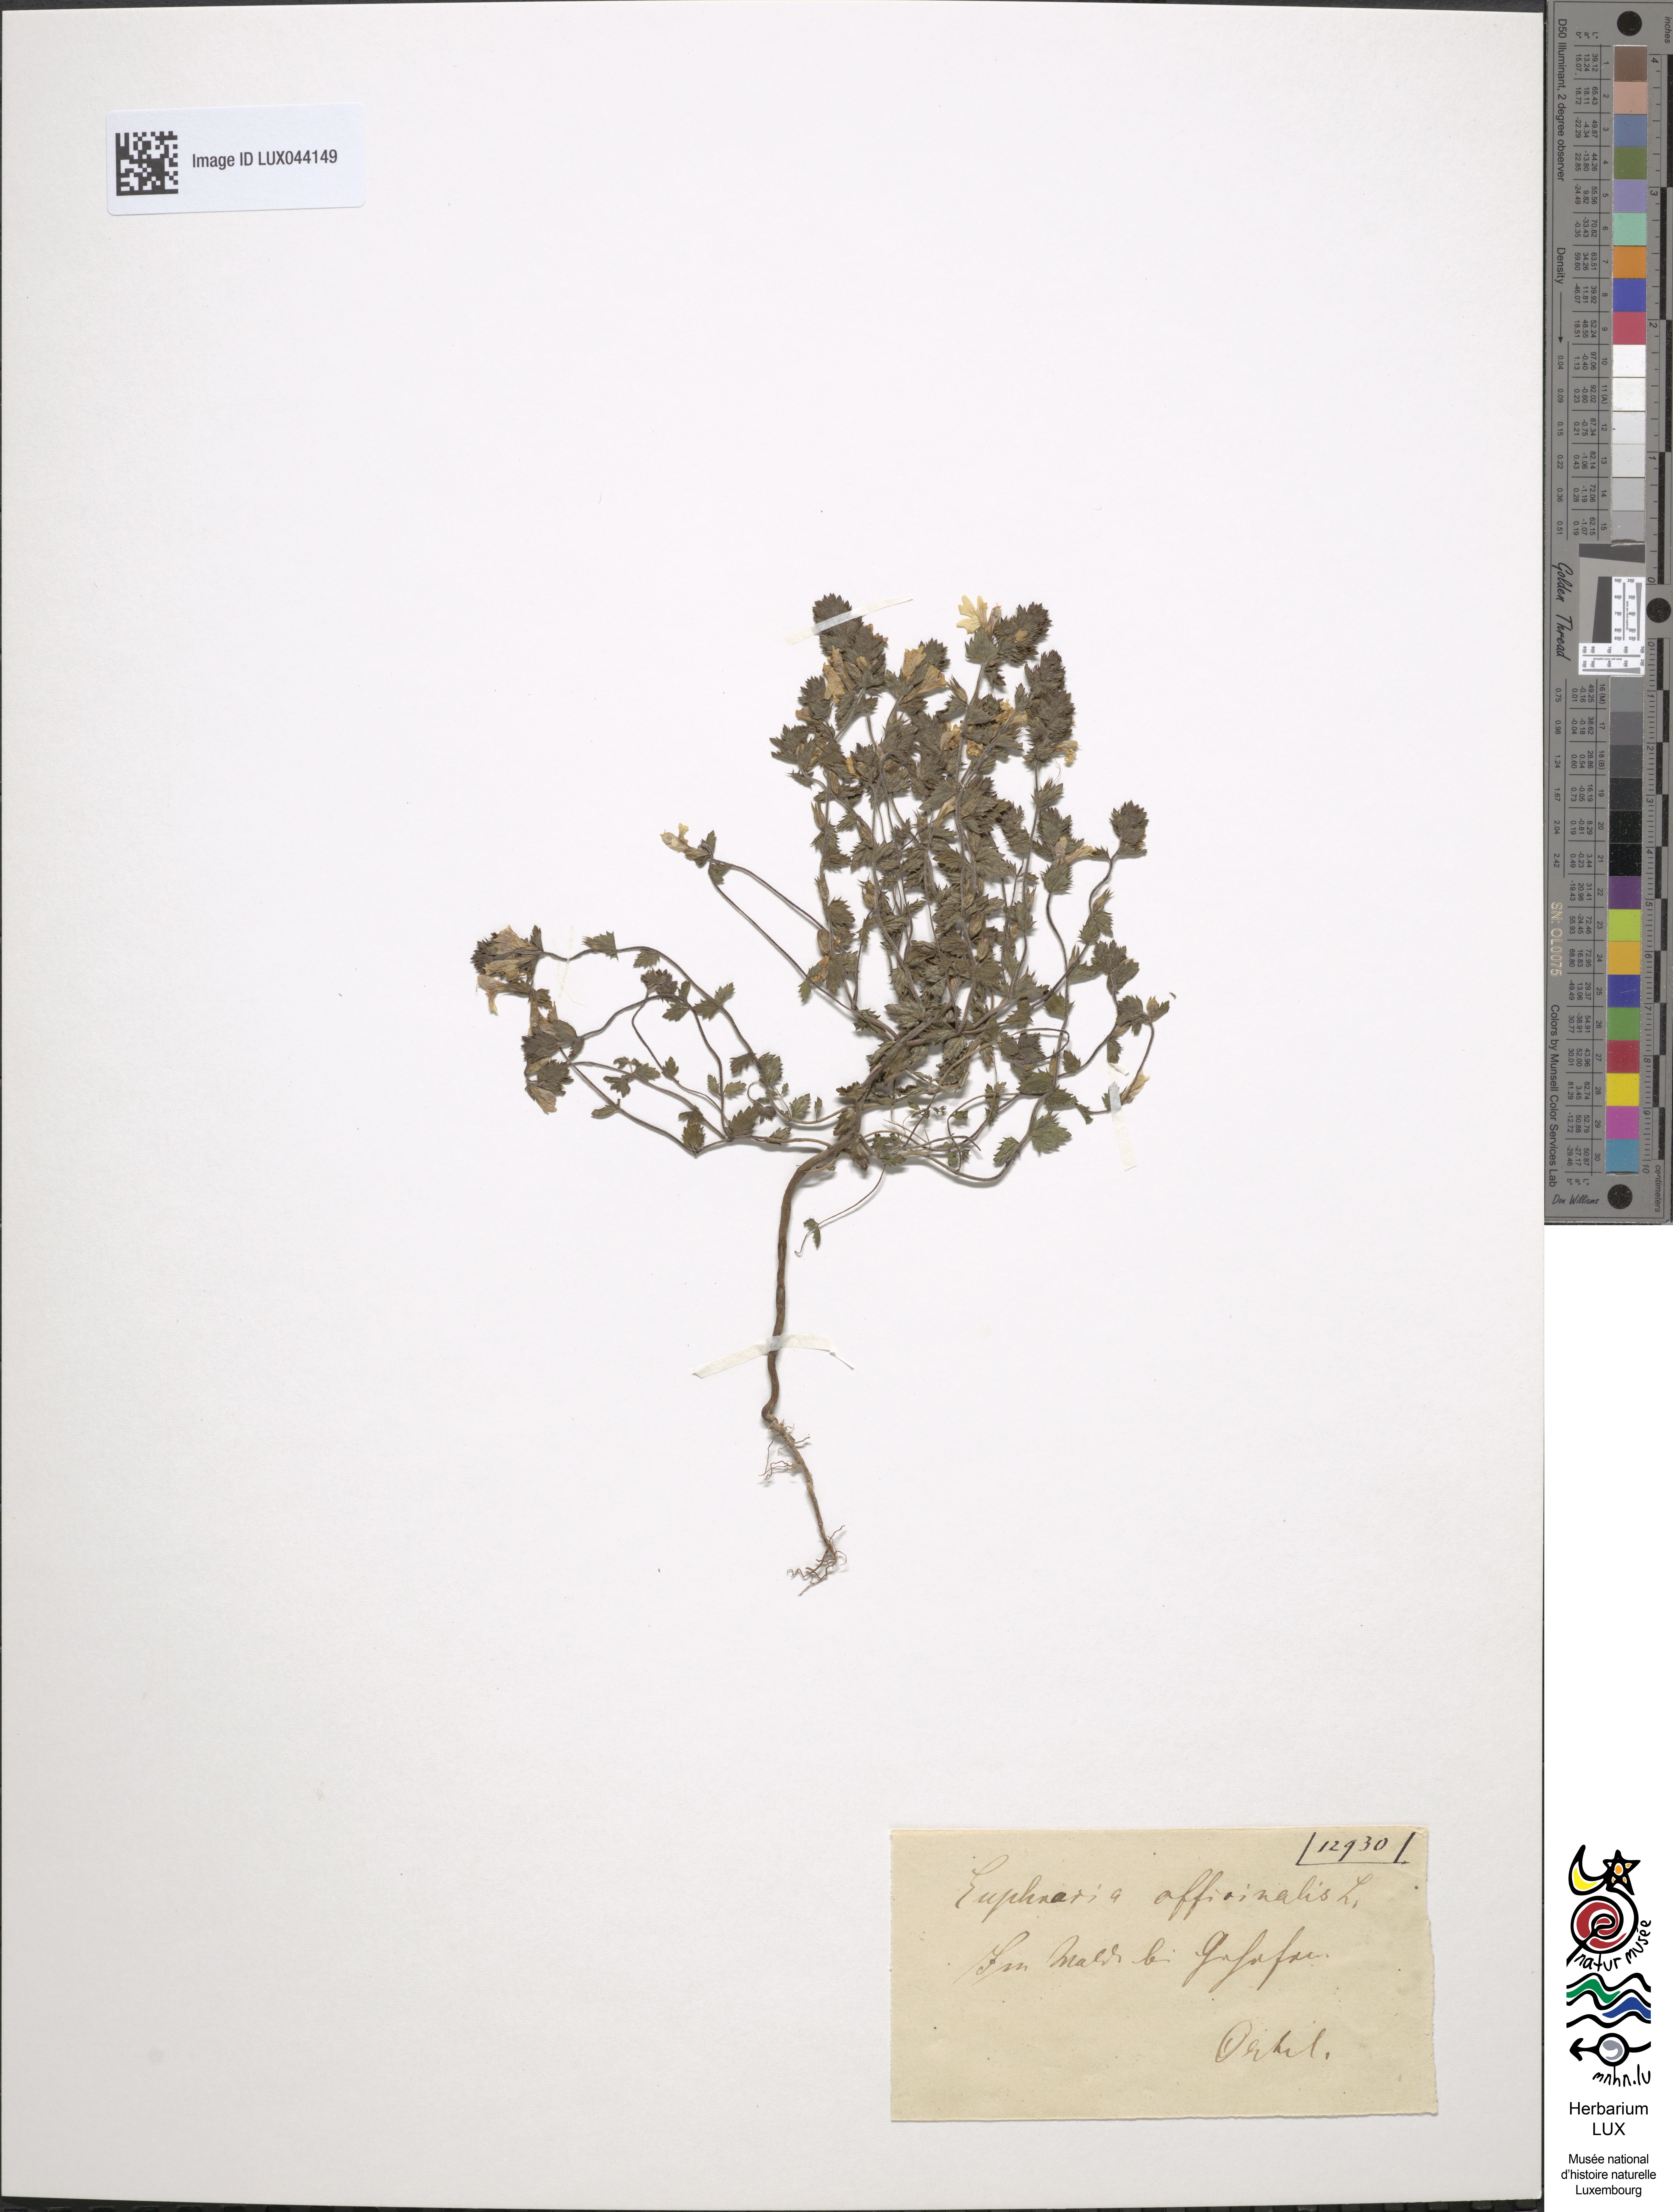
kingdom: Plantae
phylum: Tracheophyta
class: Magnoliopsida
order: Lamiales
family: Orobanchaceae
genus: Euphrasia
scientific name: Euphrasia officinalis
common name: Eyebright
